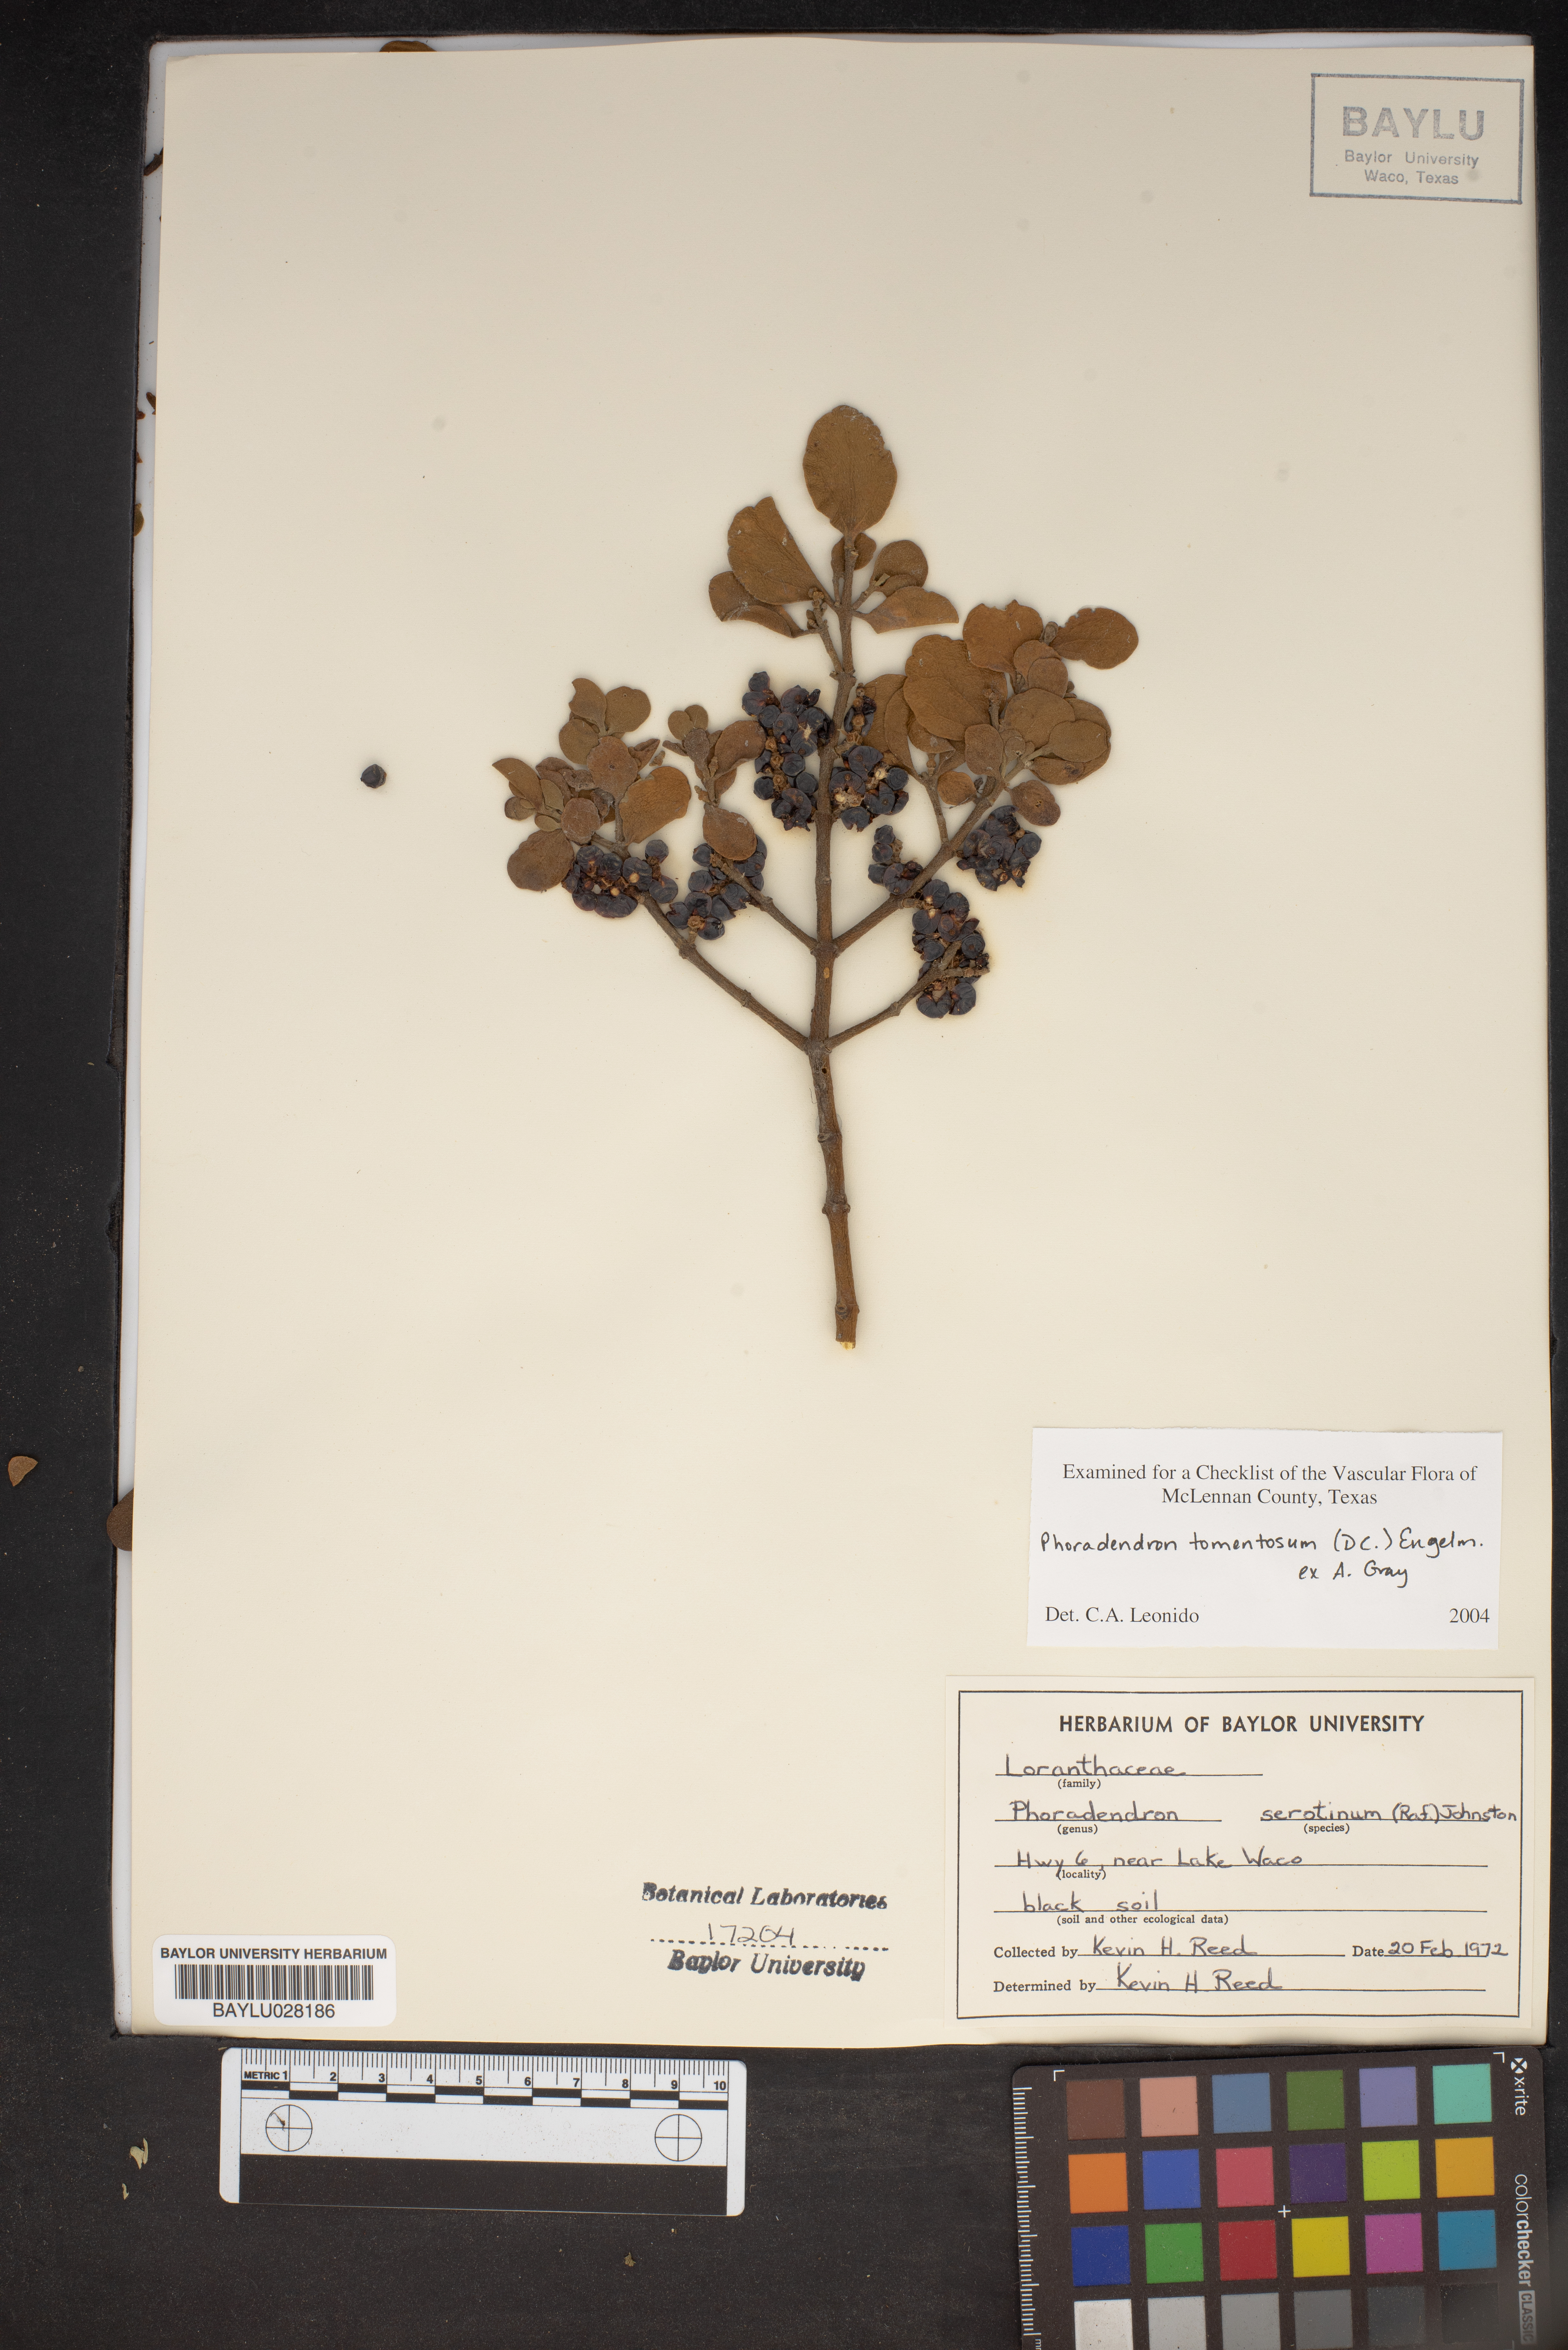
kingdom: Plantae
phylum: Tracheophyta
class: Magnoliopsida
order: Santalales
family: Viscaceae
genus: Phoradendron
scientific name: Phoradendron leucarpum
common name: Pacific mistletoe
